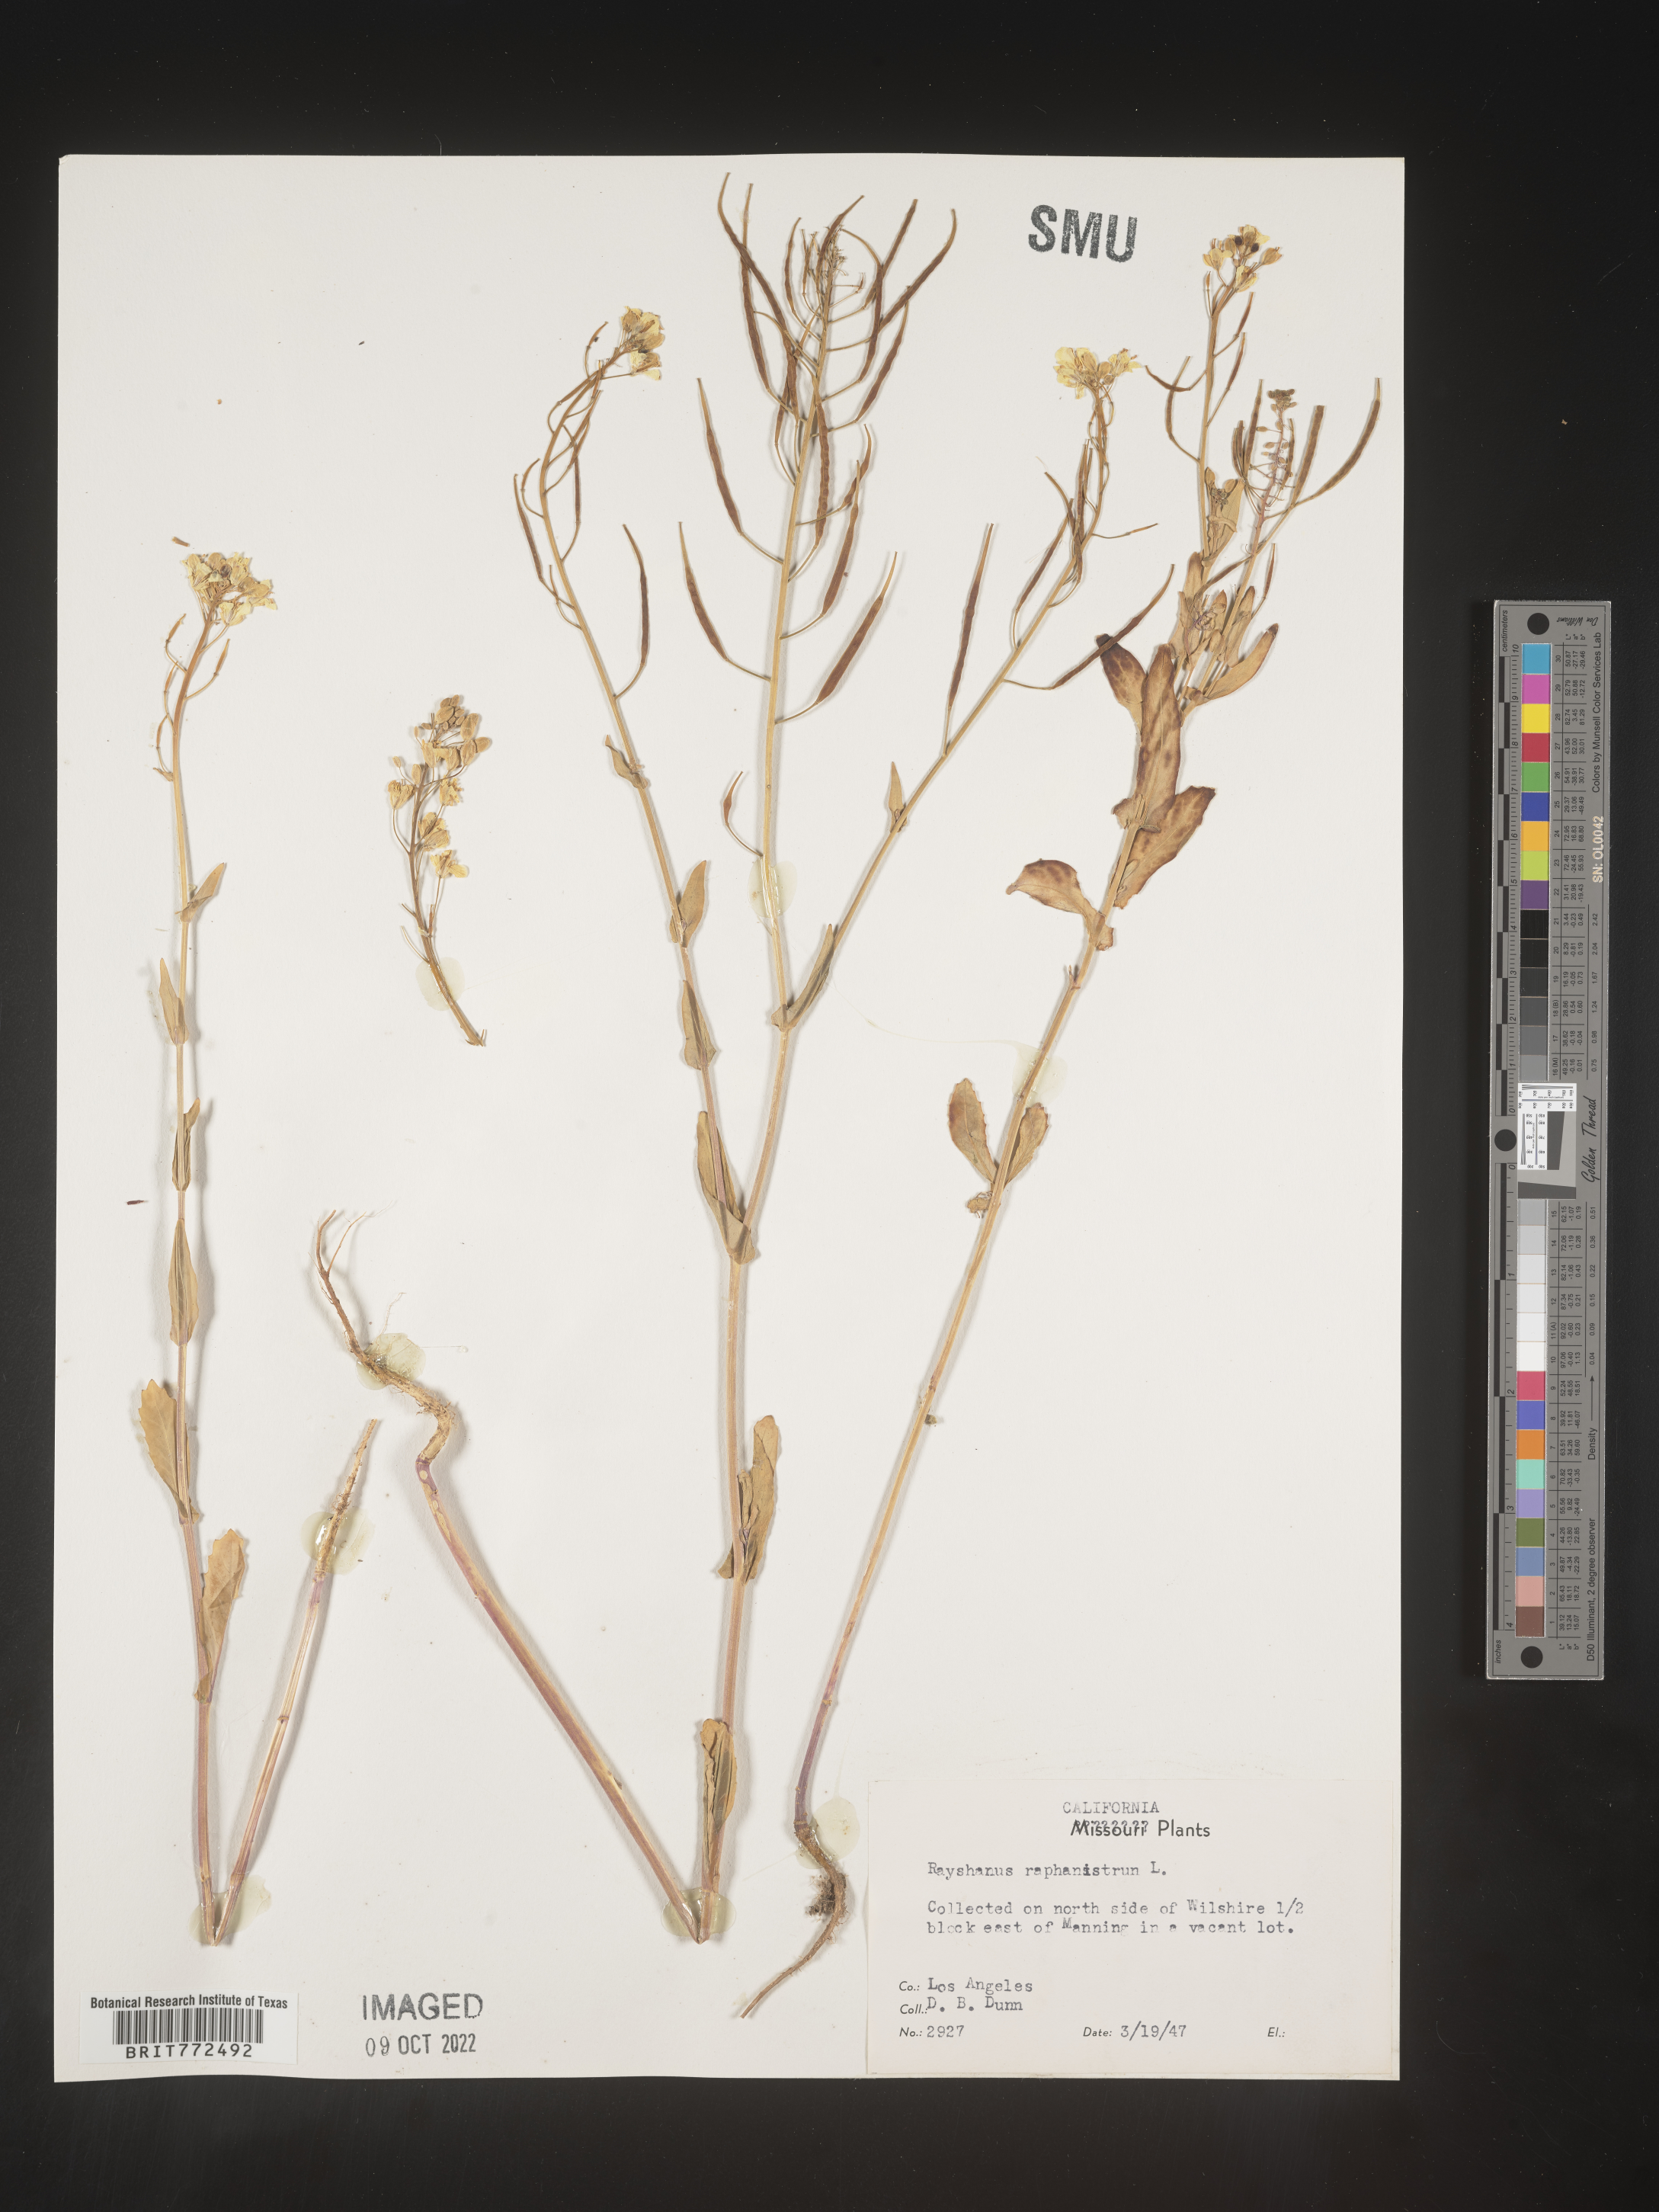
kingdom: Plantae
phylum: Tracheophyta
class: Magnoliopsida
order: Brassicales
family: Brassicaceae
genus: Brassica
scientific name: Brassica
